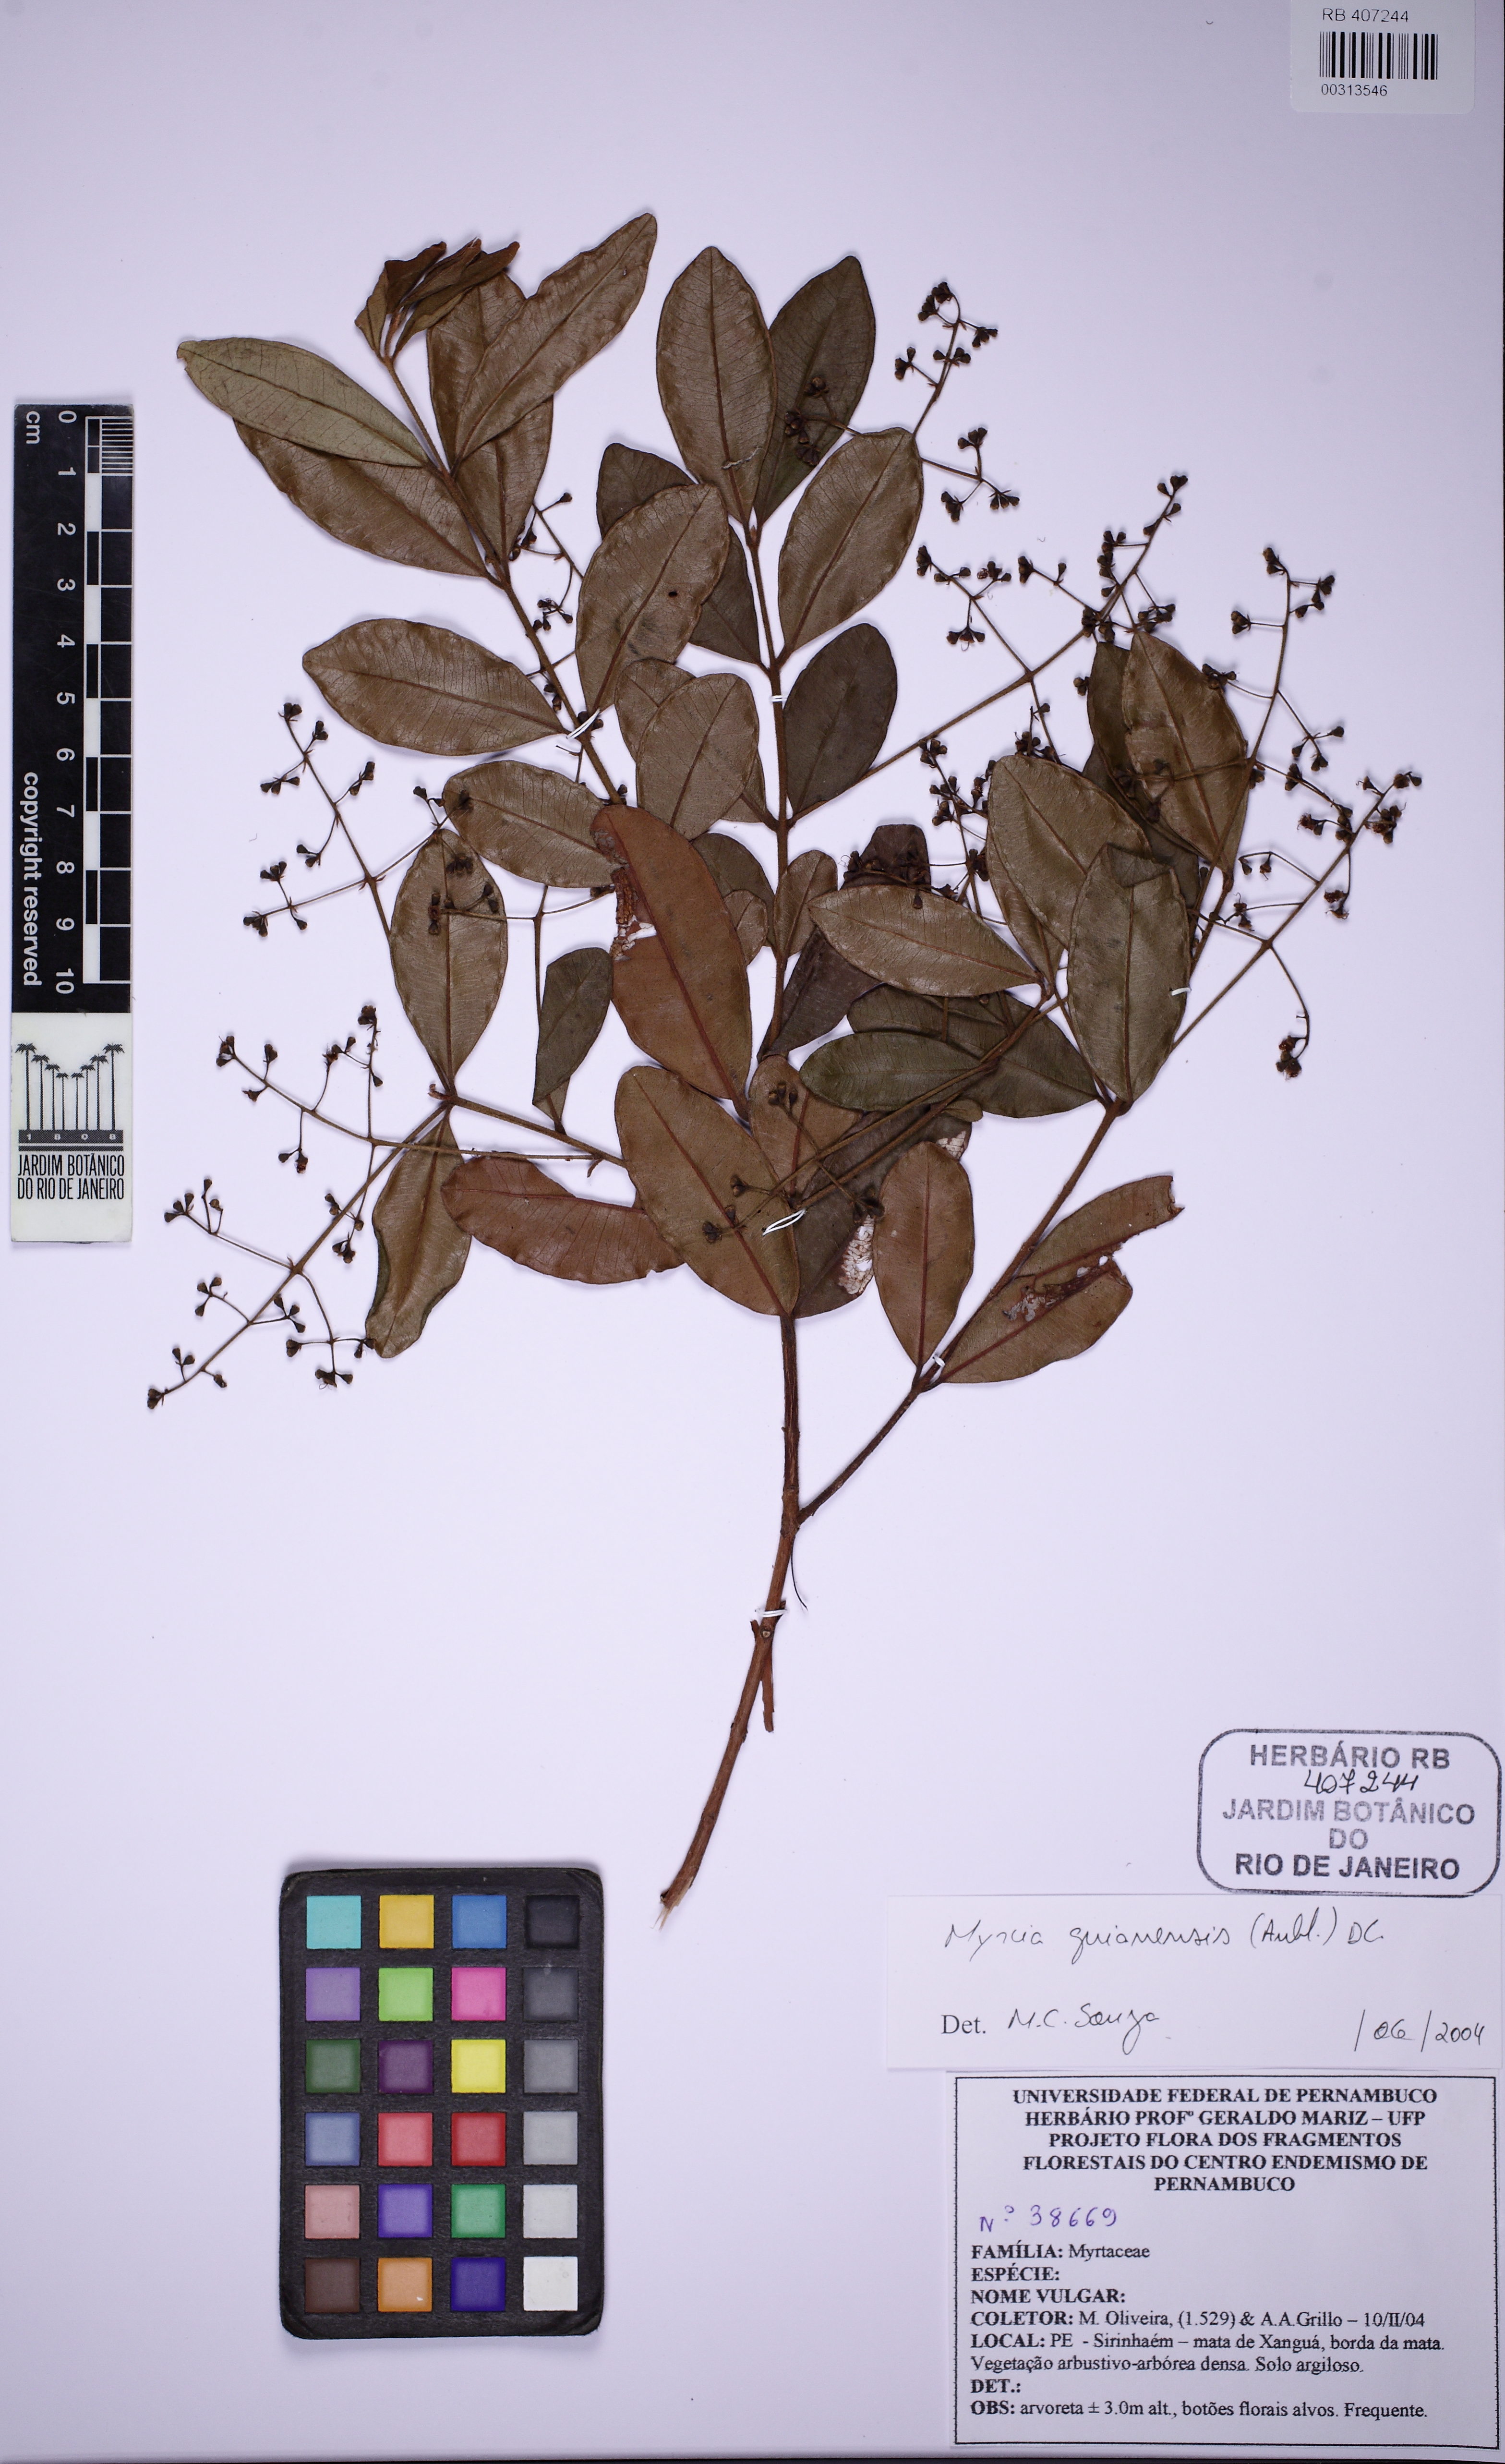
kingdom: Plantae
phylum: Tracheophyta
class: Magnoliopsida
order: Myrtales
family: Myrtaceae
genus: Myrcia
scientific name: Myrcia guianensis
